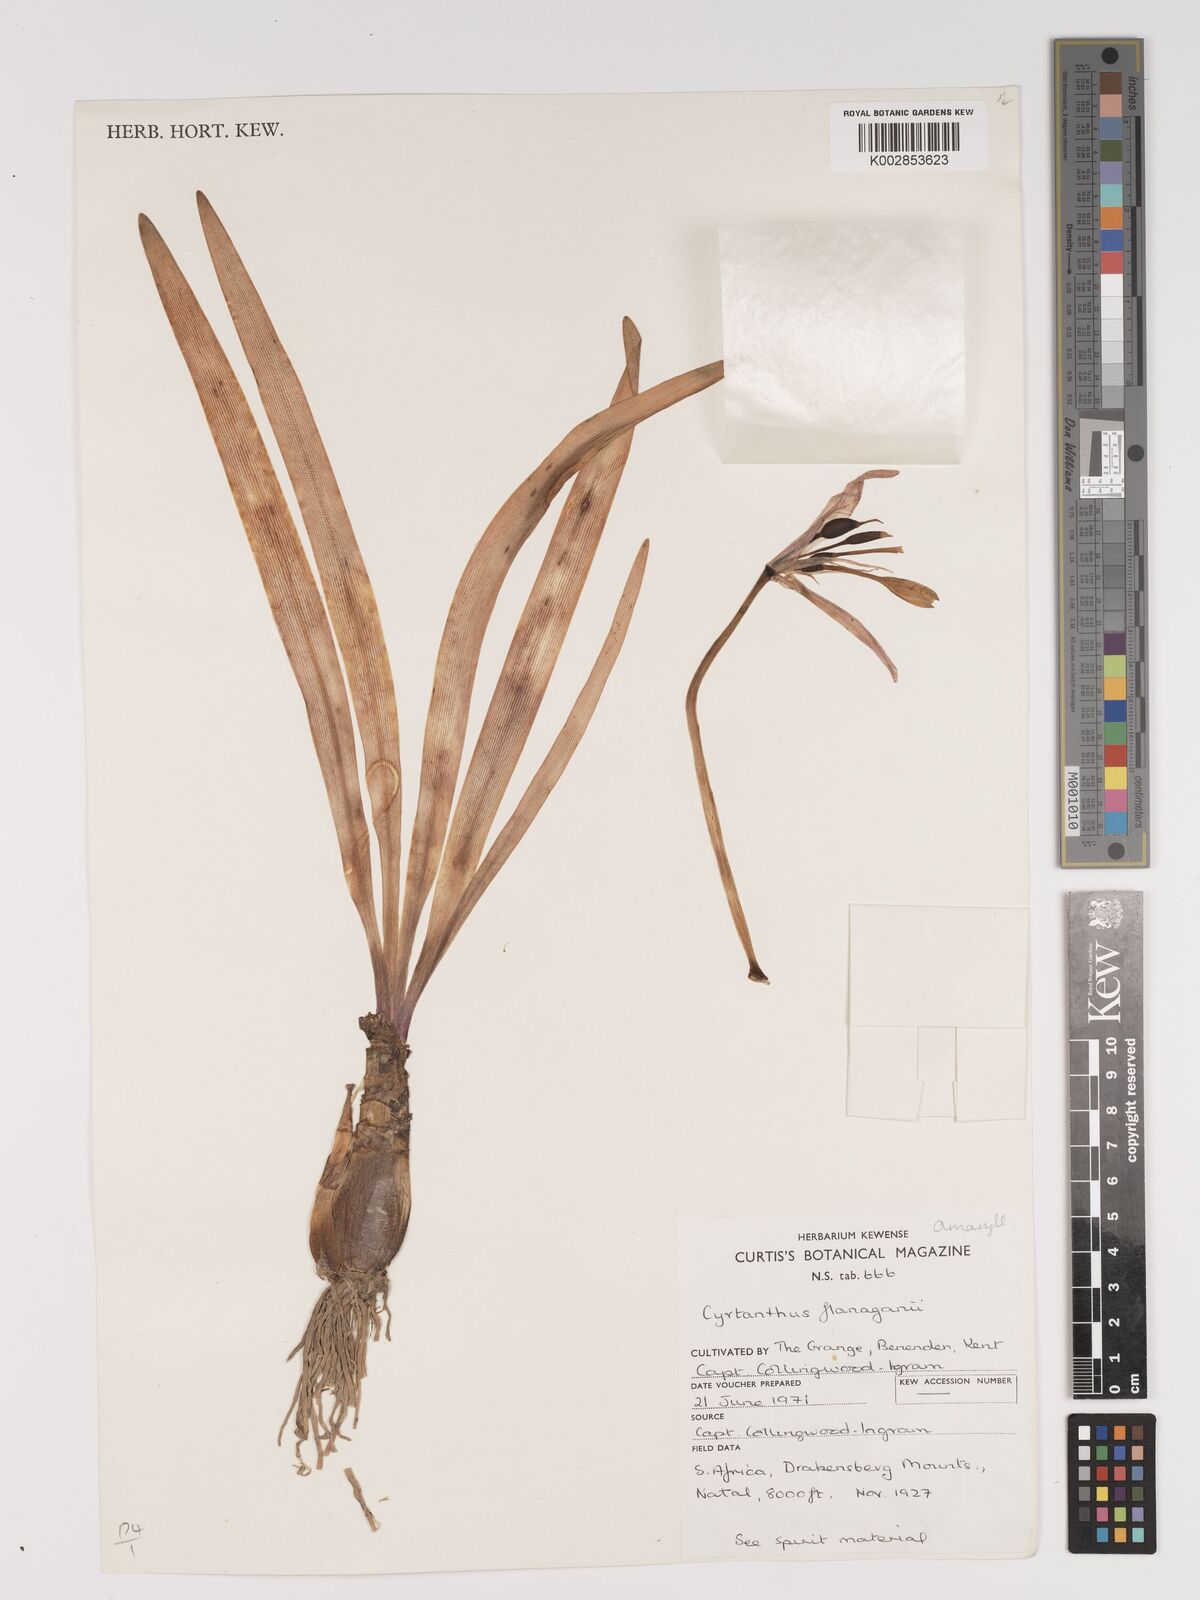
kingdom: Plantae
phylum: Tracheophyta
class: Liliopsida
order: Asparagales
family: Amaryllidaceae
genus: Cyrtanthus
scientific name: Cyrtanthus flanaganii
